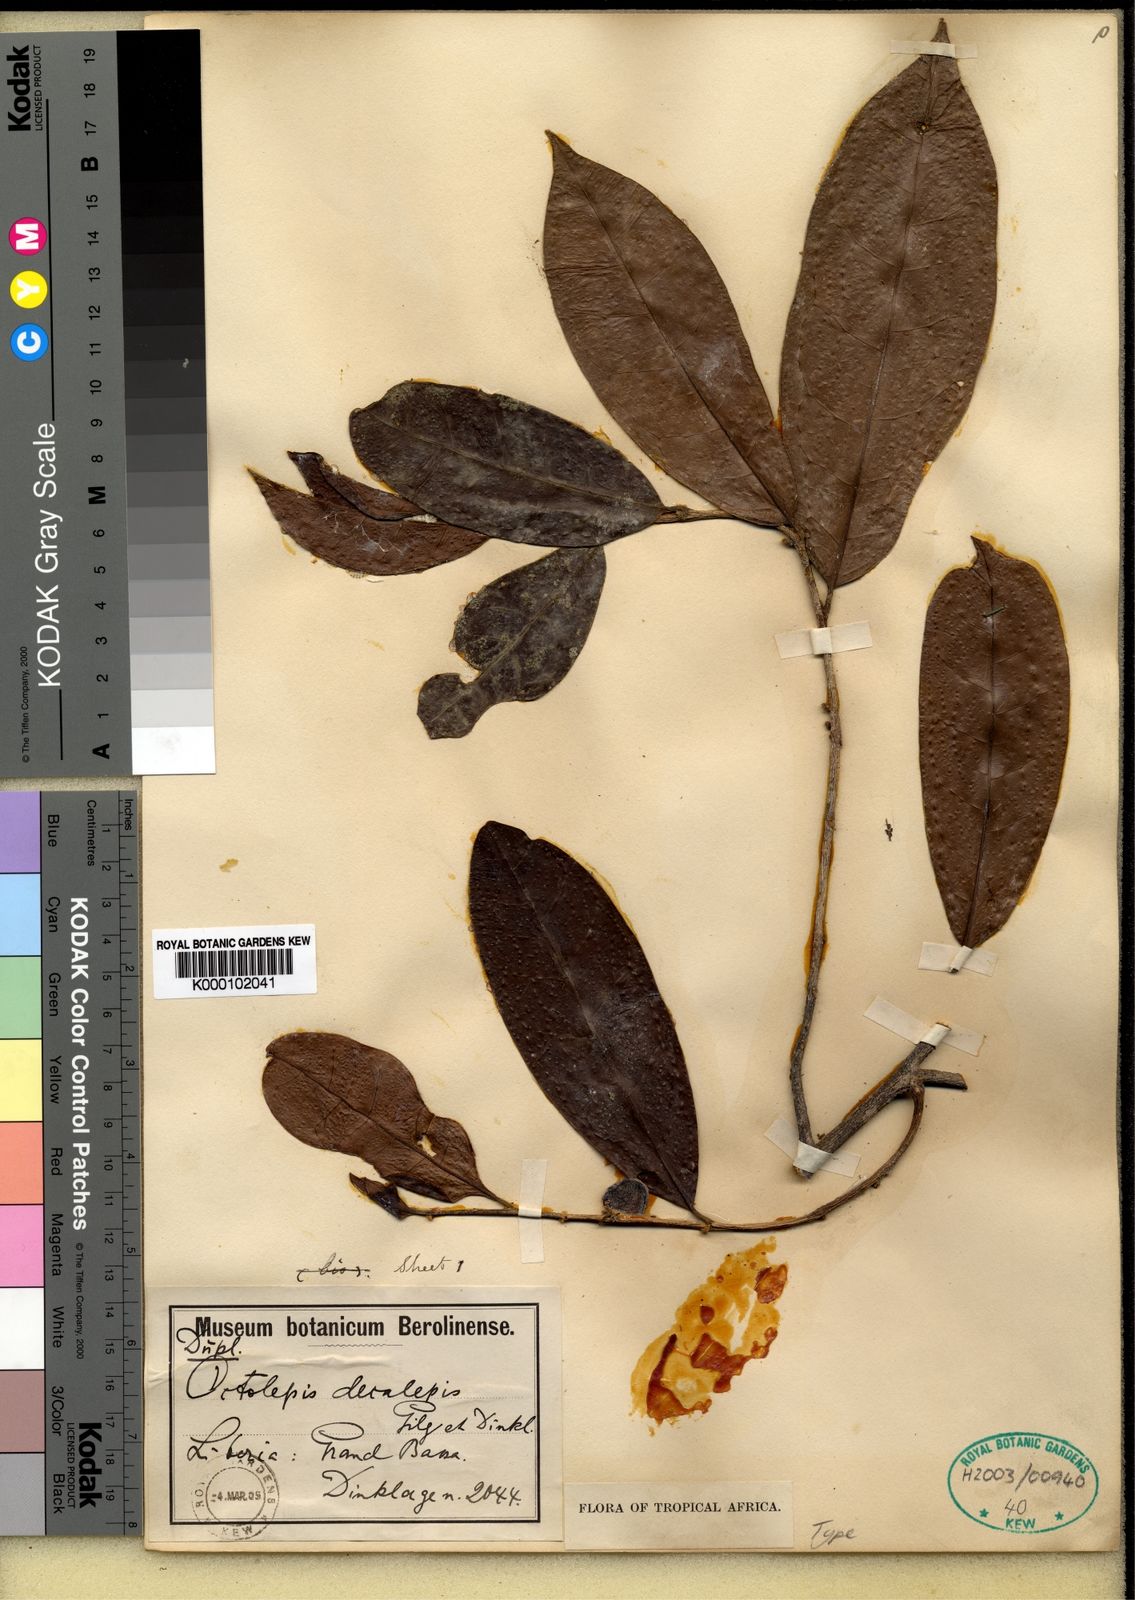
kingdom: Plantae
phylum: Tracheophyta
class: Magnoliopsida
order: Malvales
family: Thymelaeaceae
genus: Octolepis
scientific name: Octolepis casearia
